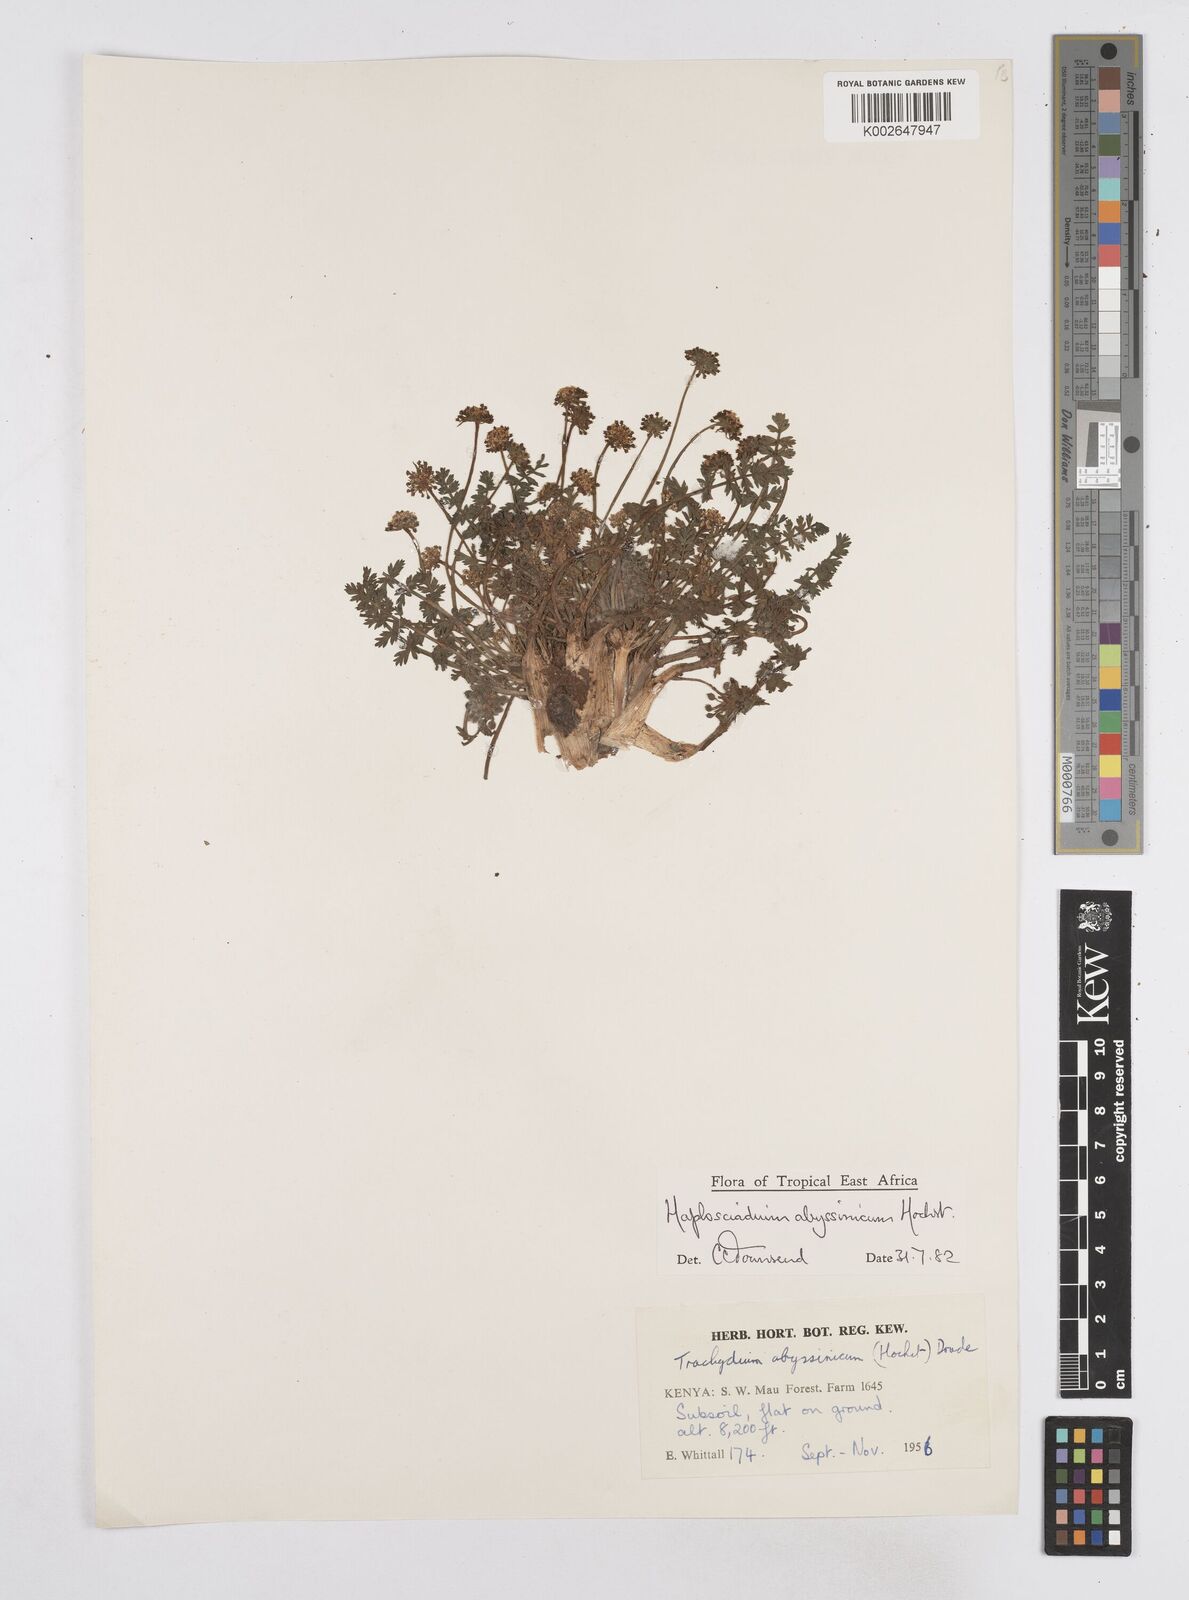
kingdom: Plantae
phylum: Tracheophyta
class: Magnoliopsida
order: Apiales
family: Apiaceae
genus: Haplosciadium
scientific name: Haplosciadium abyssinicum
